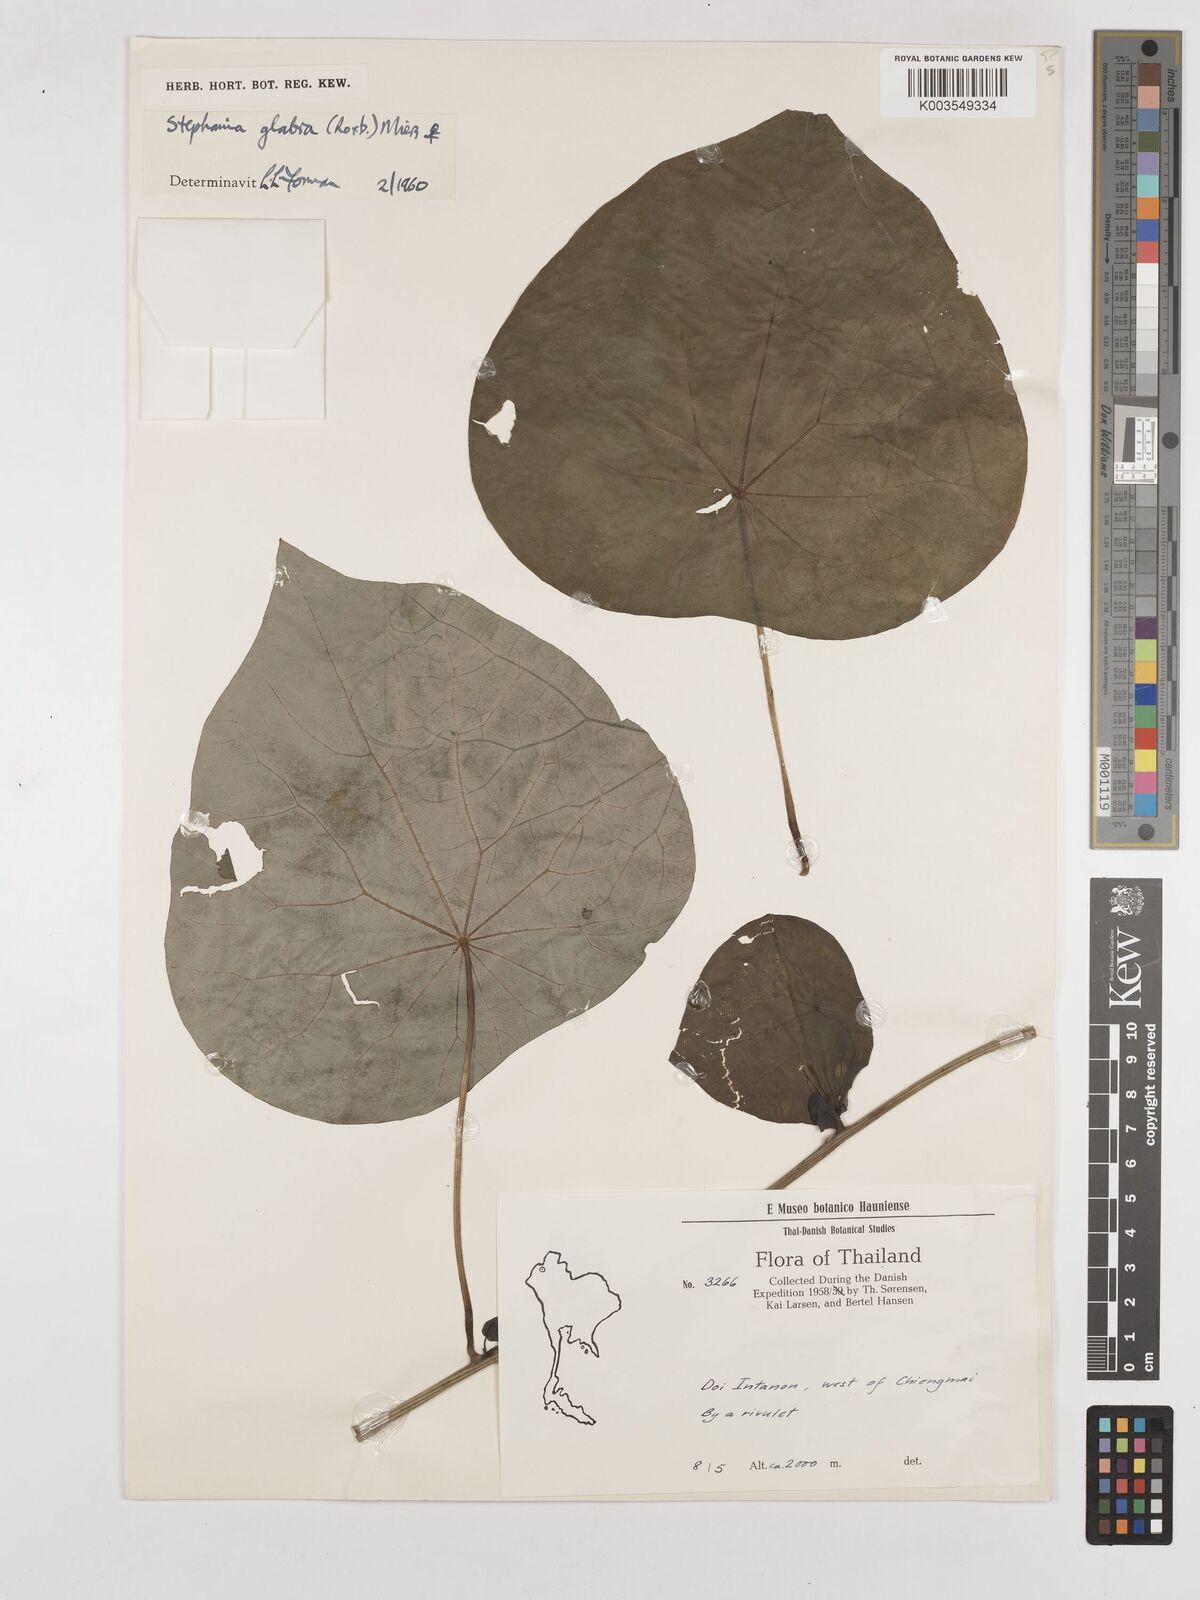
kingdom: Plantae
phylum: Tracheophyta
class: Magnoliopsida
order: Ranunculales
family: Menispermaceae
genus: Stephania
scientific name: Stephania rotunda
